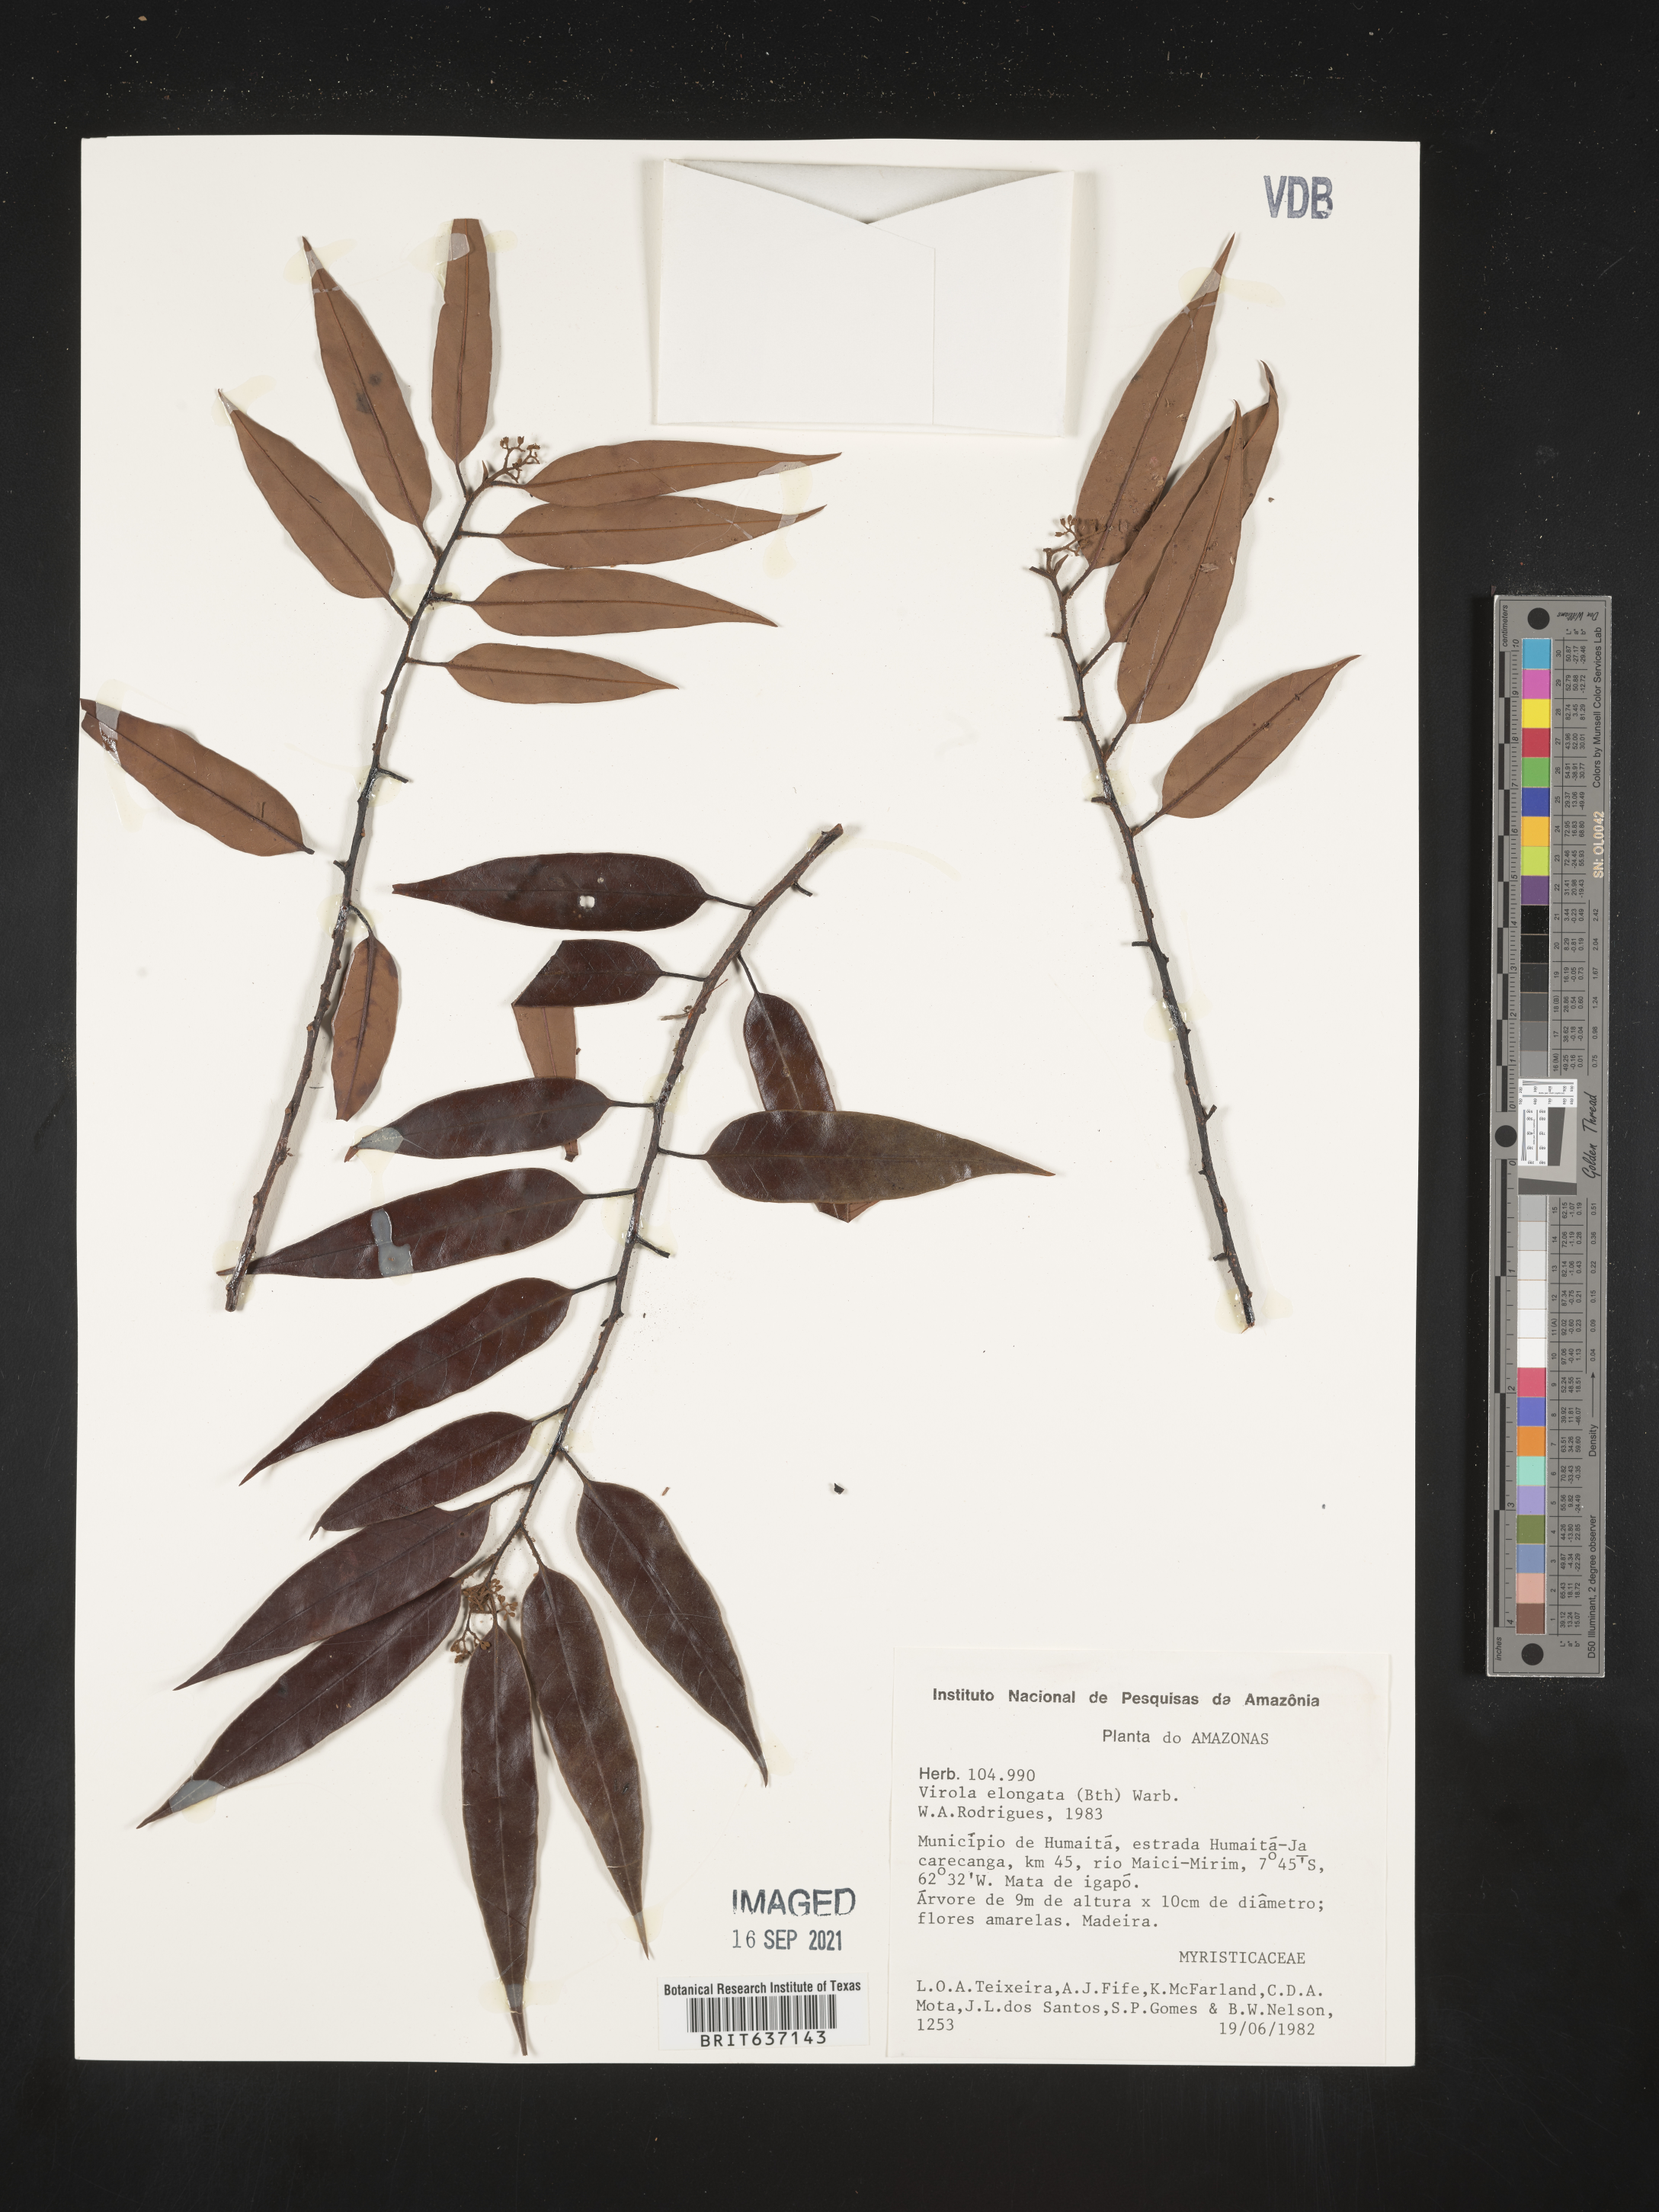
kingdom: Plantae
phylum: Tracheophyta
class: Magnoliopsida
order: Magnoliales
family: Myristicaceae
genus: Virola
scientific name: Virola
